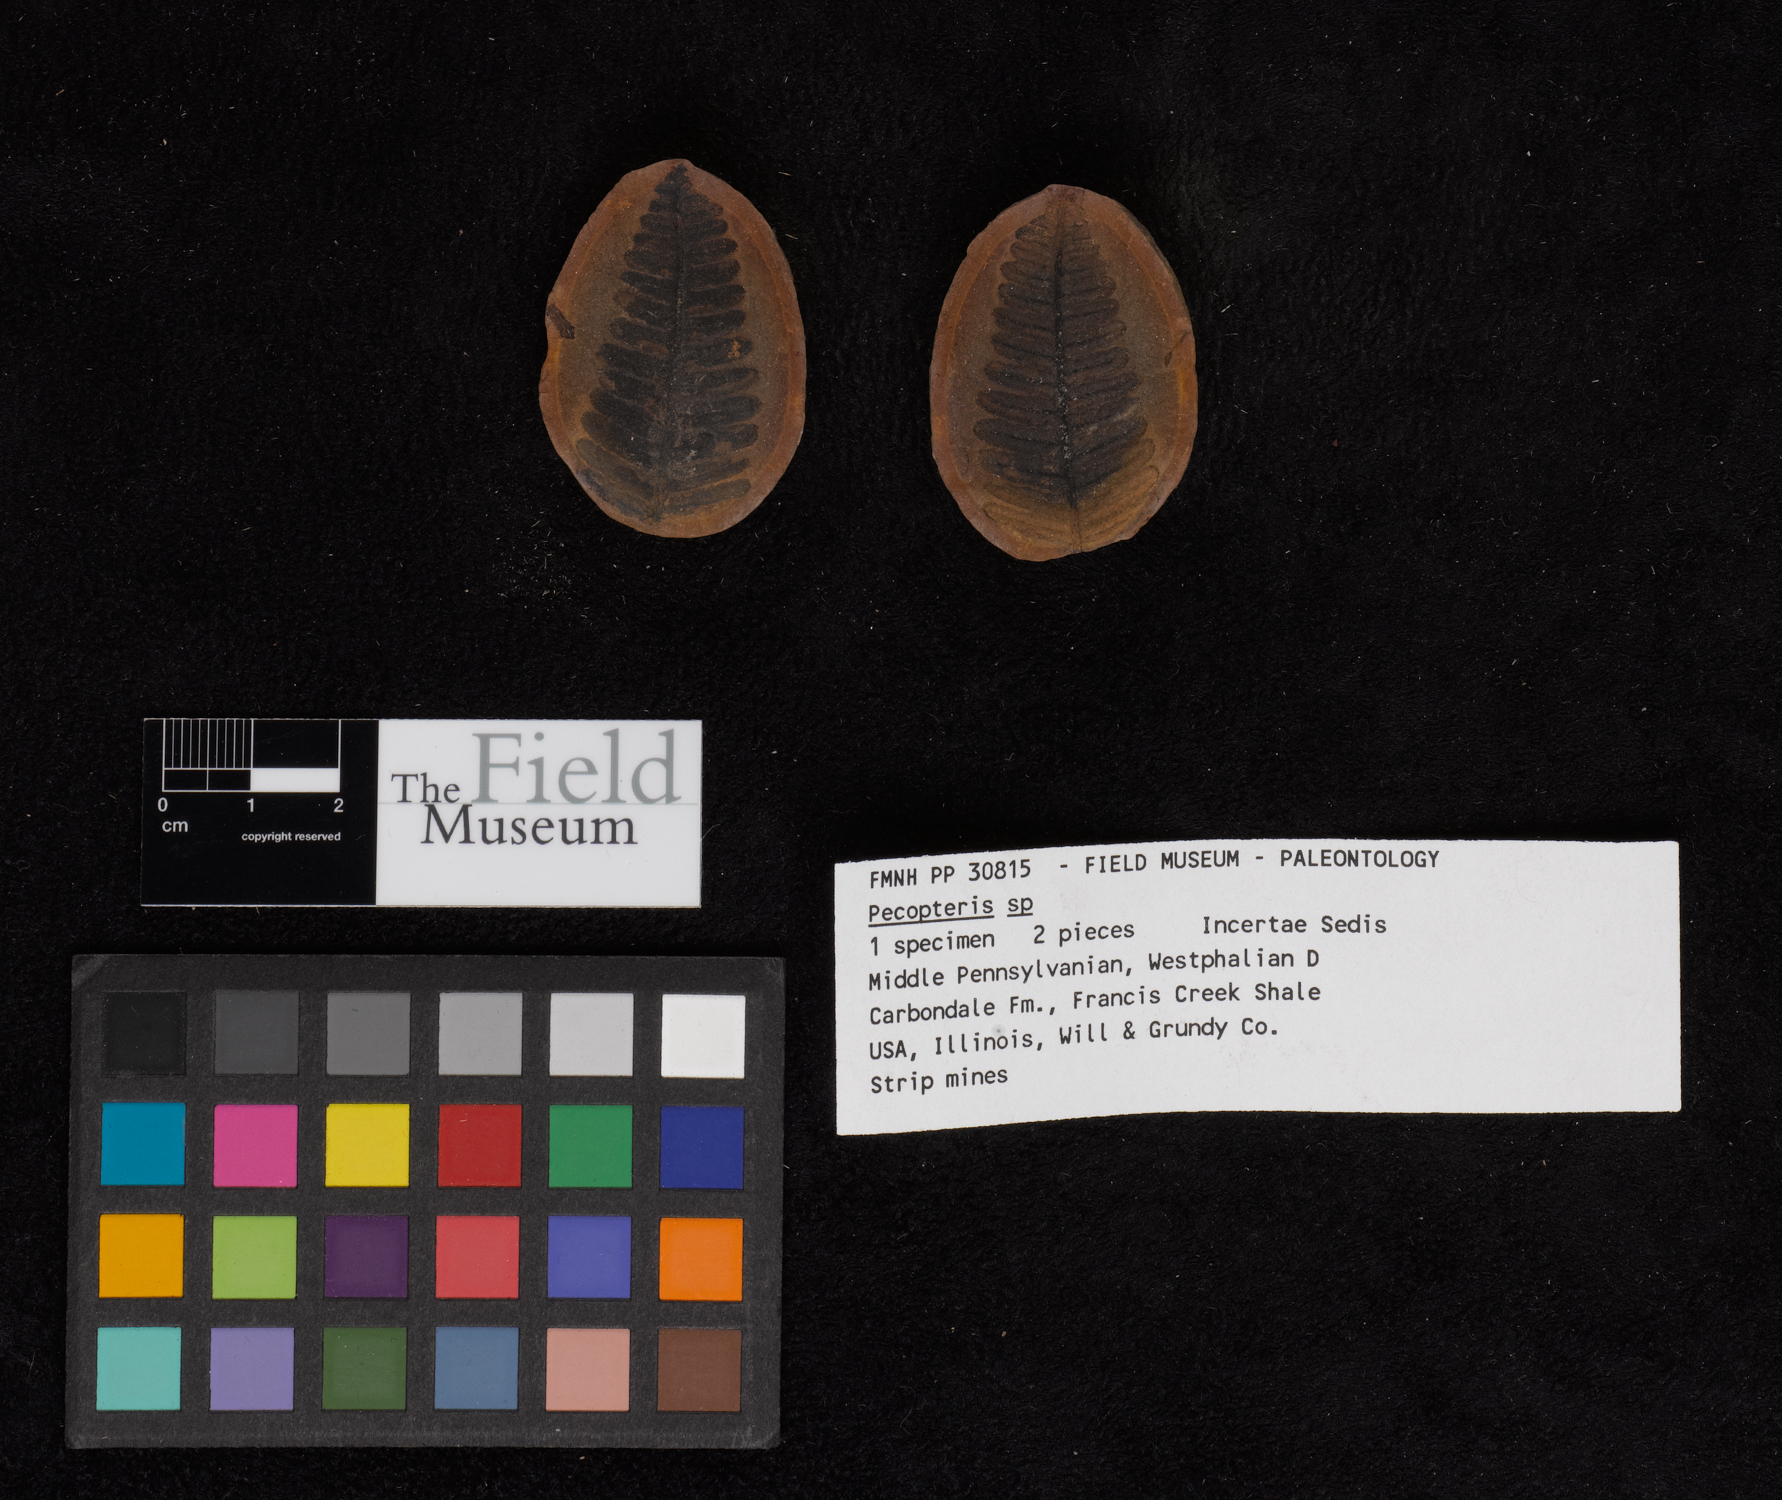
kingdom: Plantae
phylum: Tracheophyta
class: Polypodiopsida
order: Marattiales
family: Asterothecaceae
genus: Pecopteris
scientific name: Pecopteris
